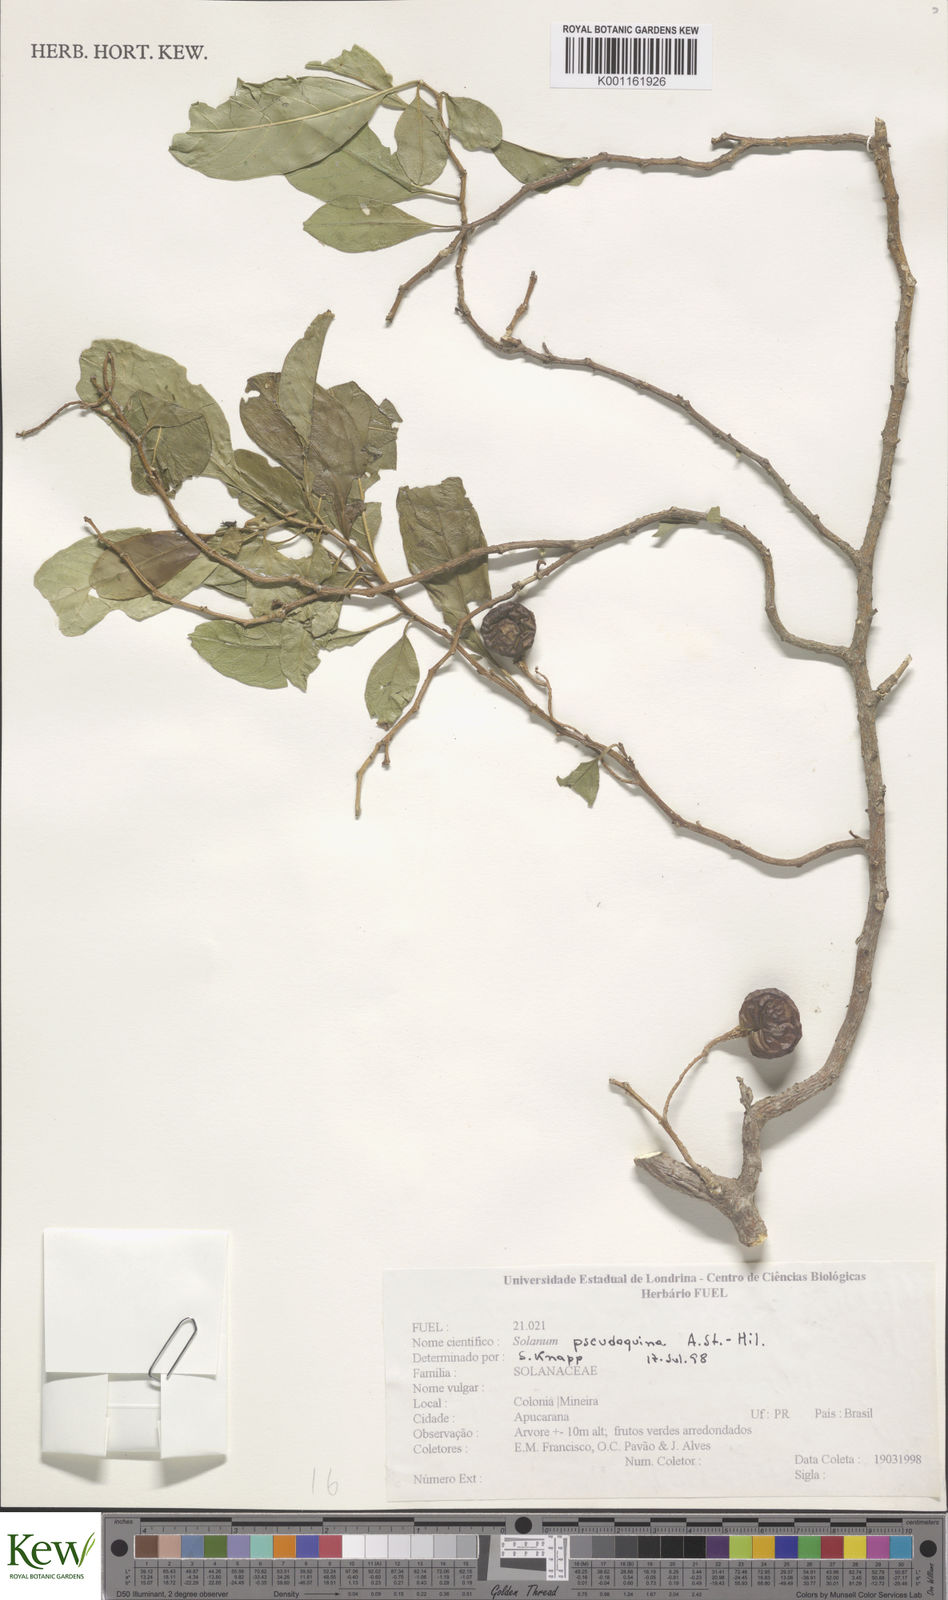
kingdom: Plantae
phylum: Tracheophyta
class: Magnoliopsida
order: Solanales
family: Solanaceae
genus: Solanum
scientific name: Solanum pseudoquina
